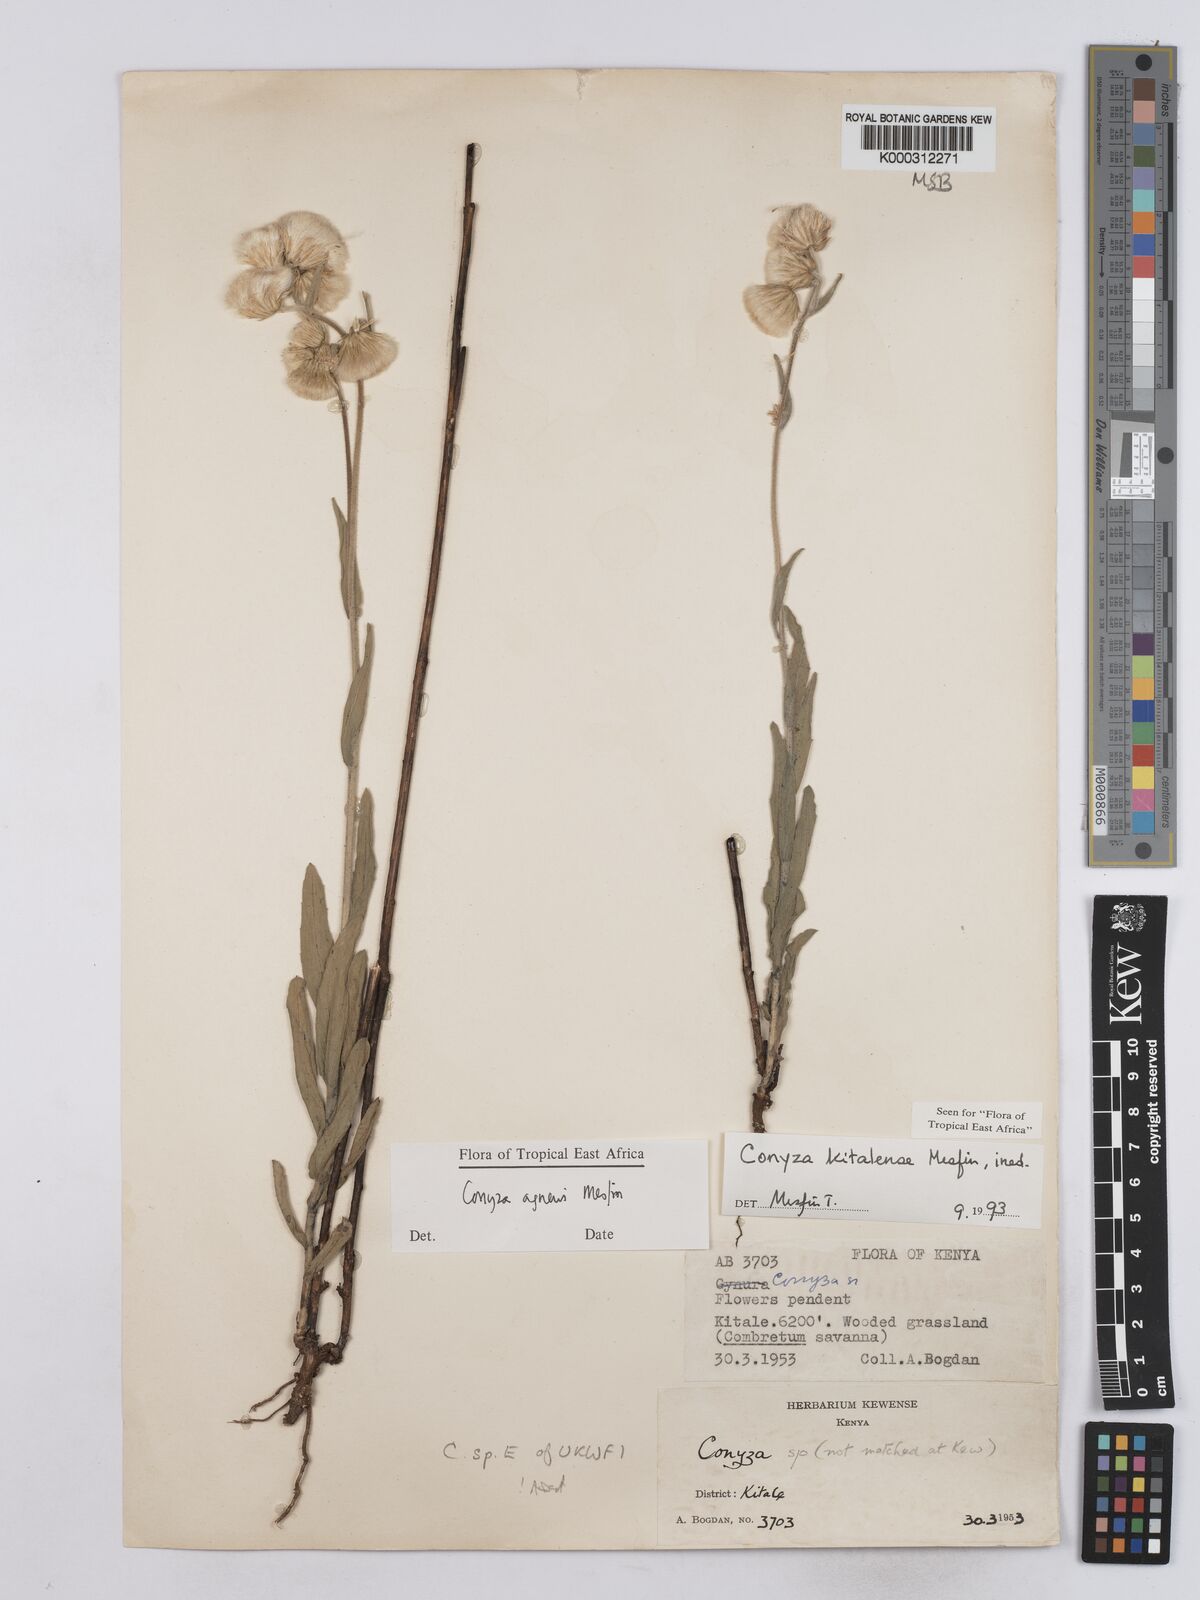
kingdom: Plantae
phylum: Tracheophyta
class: Magnoliopsida
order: Asterales
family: Asteraceae
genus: Conyza
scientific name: Conyza agnewii
